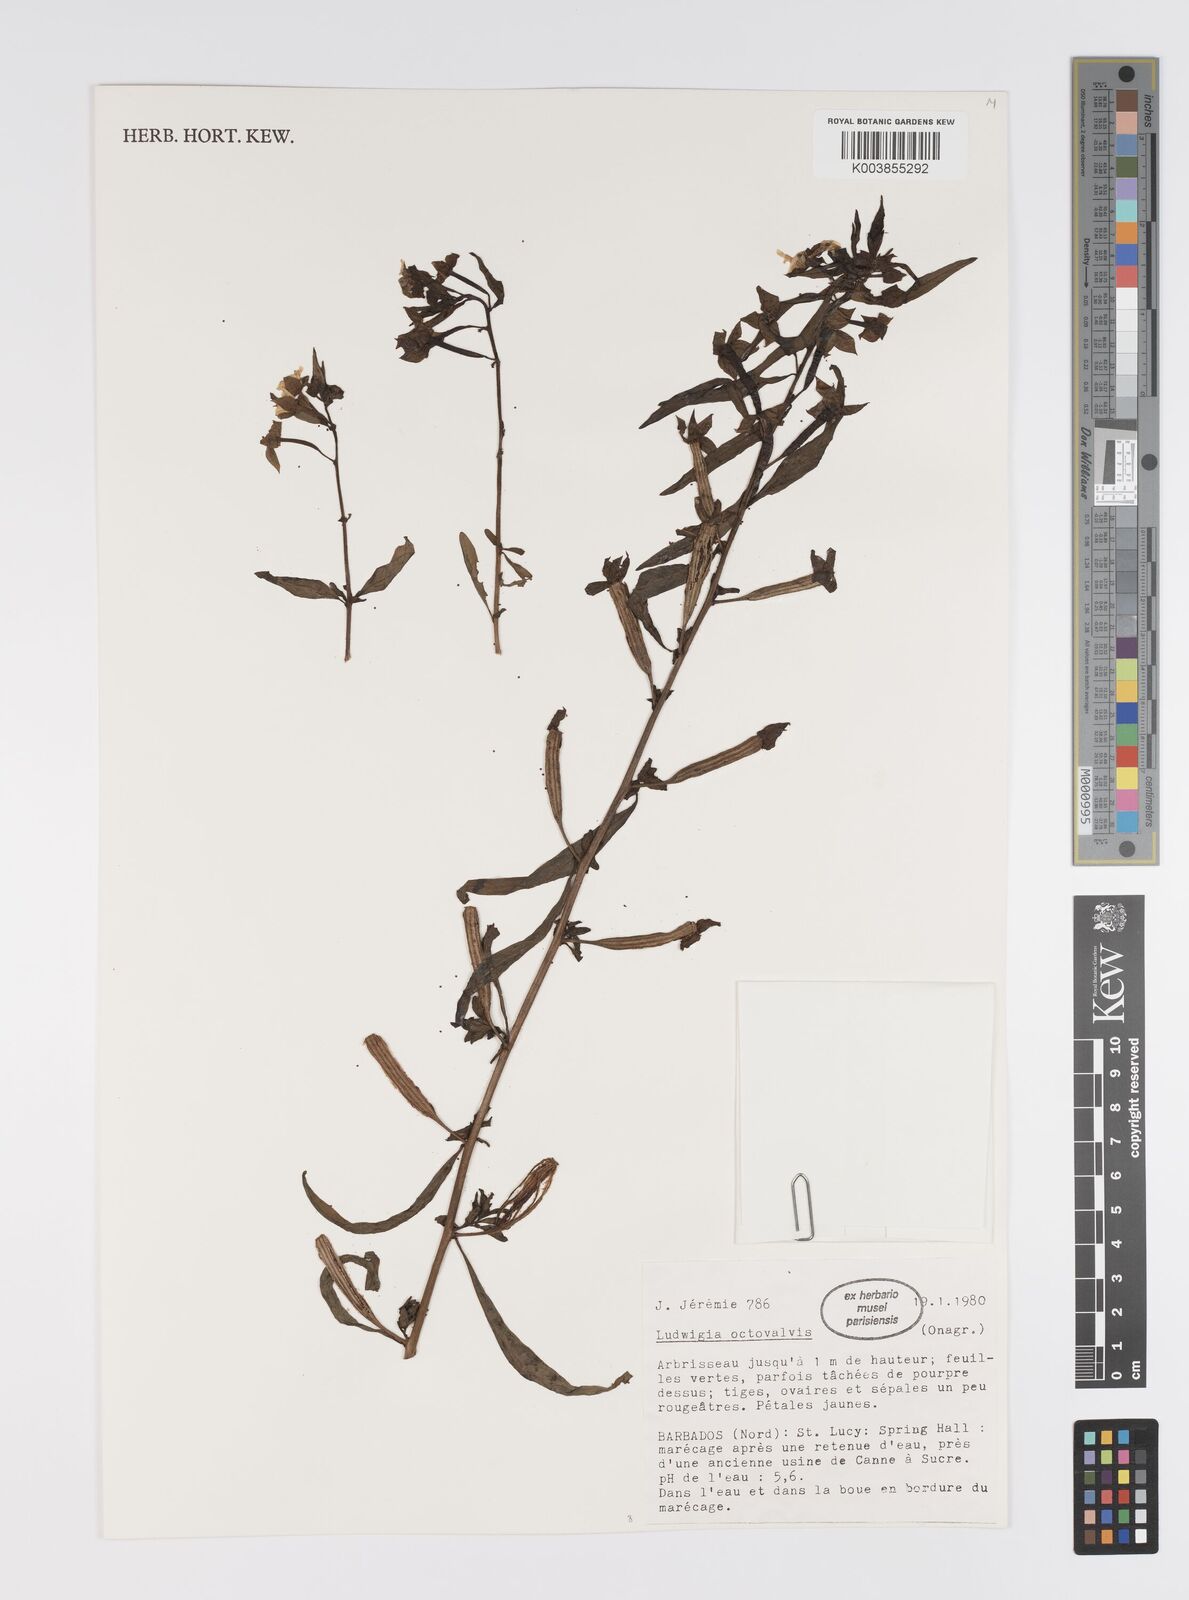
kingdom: Plantae
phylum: Tracheophyta
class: Magnoliopsida
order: Myrtales
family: Onagraceae
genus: Ludwigia
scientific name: Ludwigia octovalvis
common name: Water-primrose
